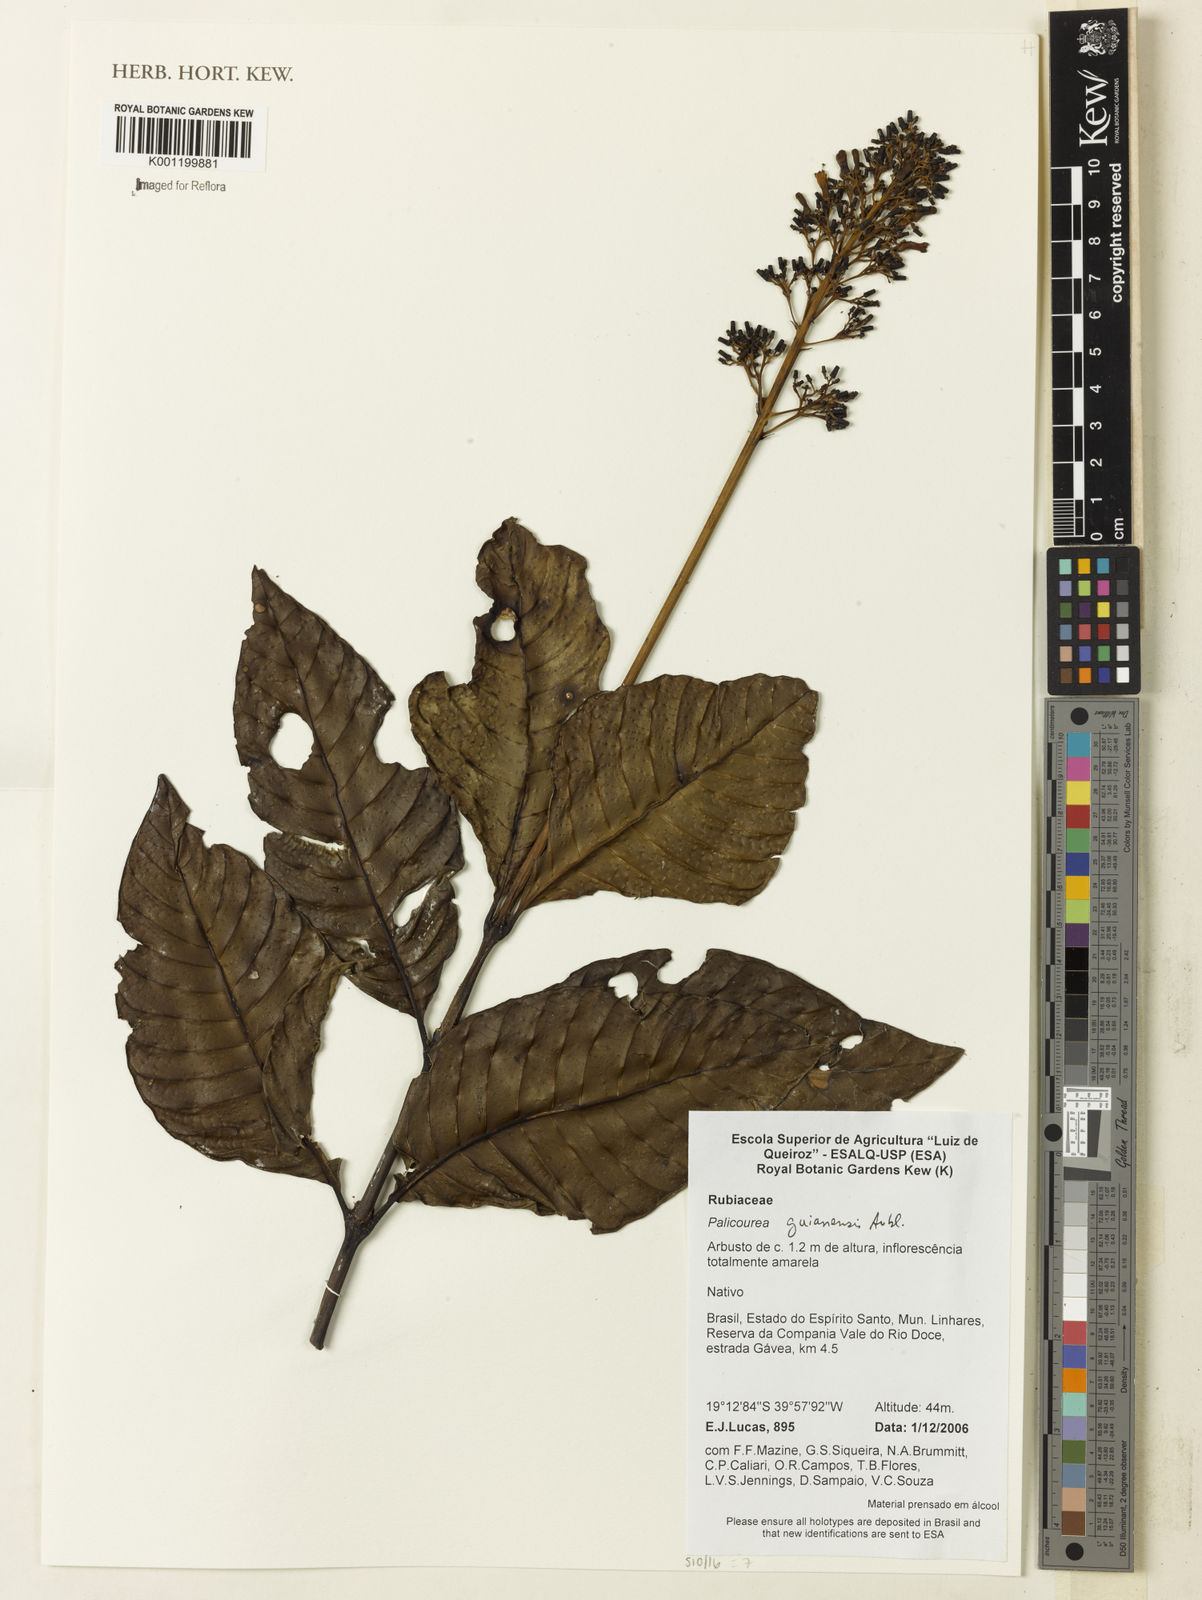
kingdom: Plantae
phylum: Tracheophyta
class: Magnoliopsida
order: Gentianales
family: Rubiaceae
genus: Palicourea
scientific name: Palicourea guianensis
